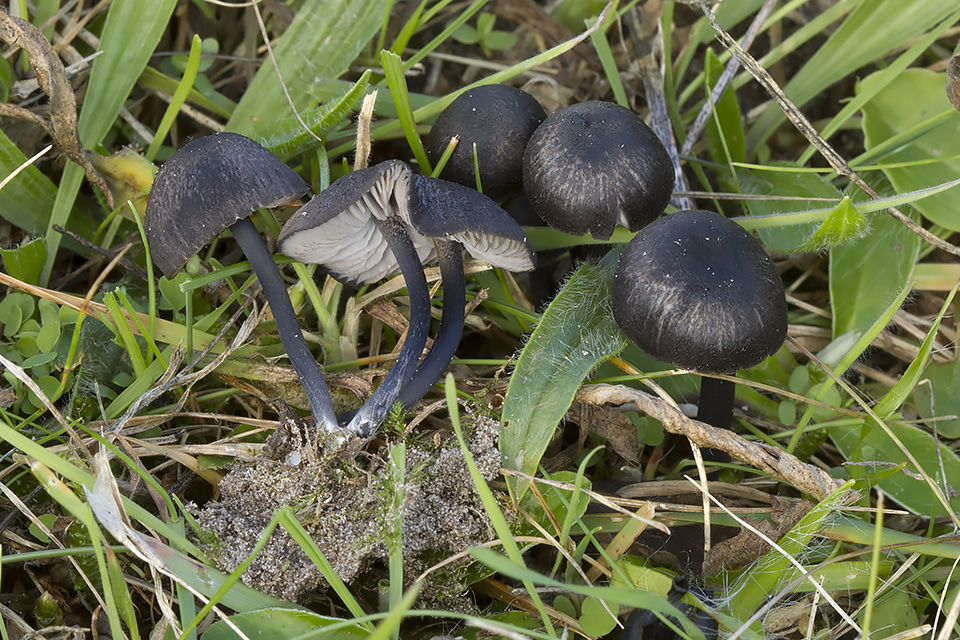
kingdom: Fungi
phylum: Basidiomycota
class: Agaricomycetes
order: Agaricales
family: Entolomataceae
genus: Entoloma
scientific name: Entoloma chalybeum
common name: blåbladet rødblad
